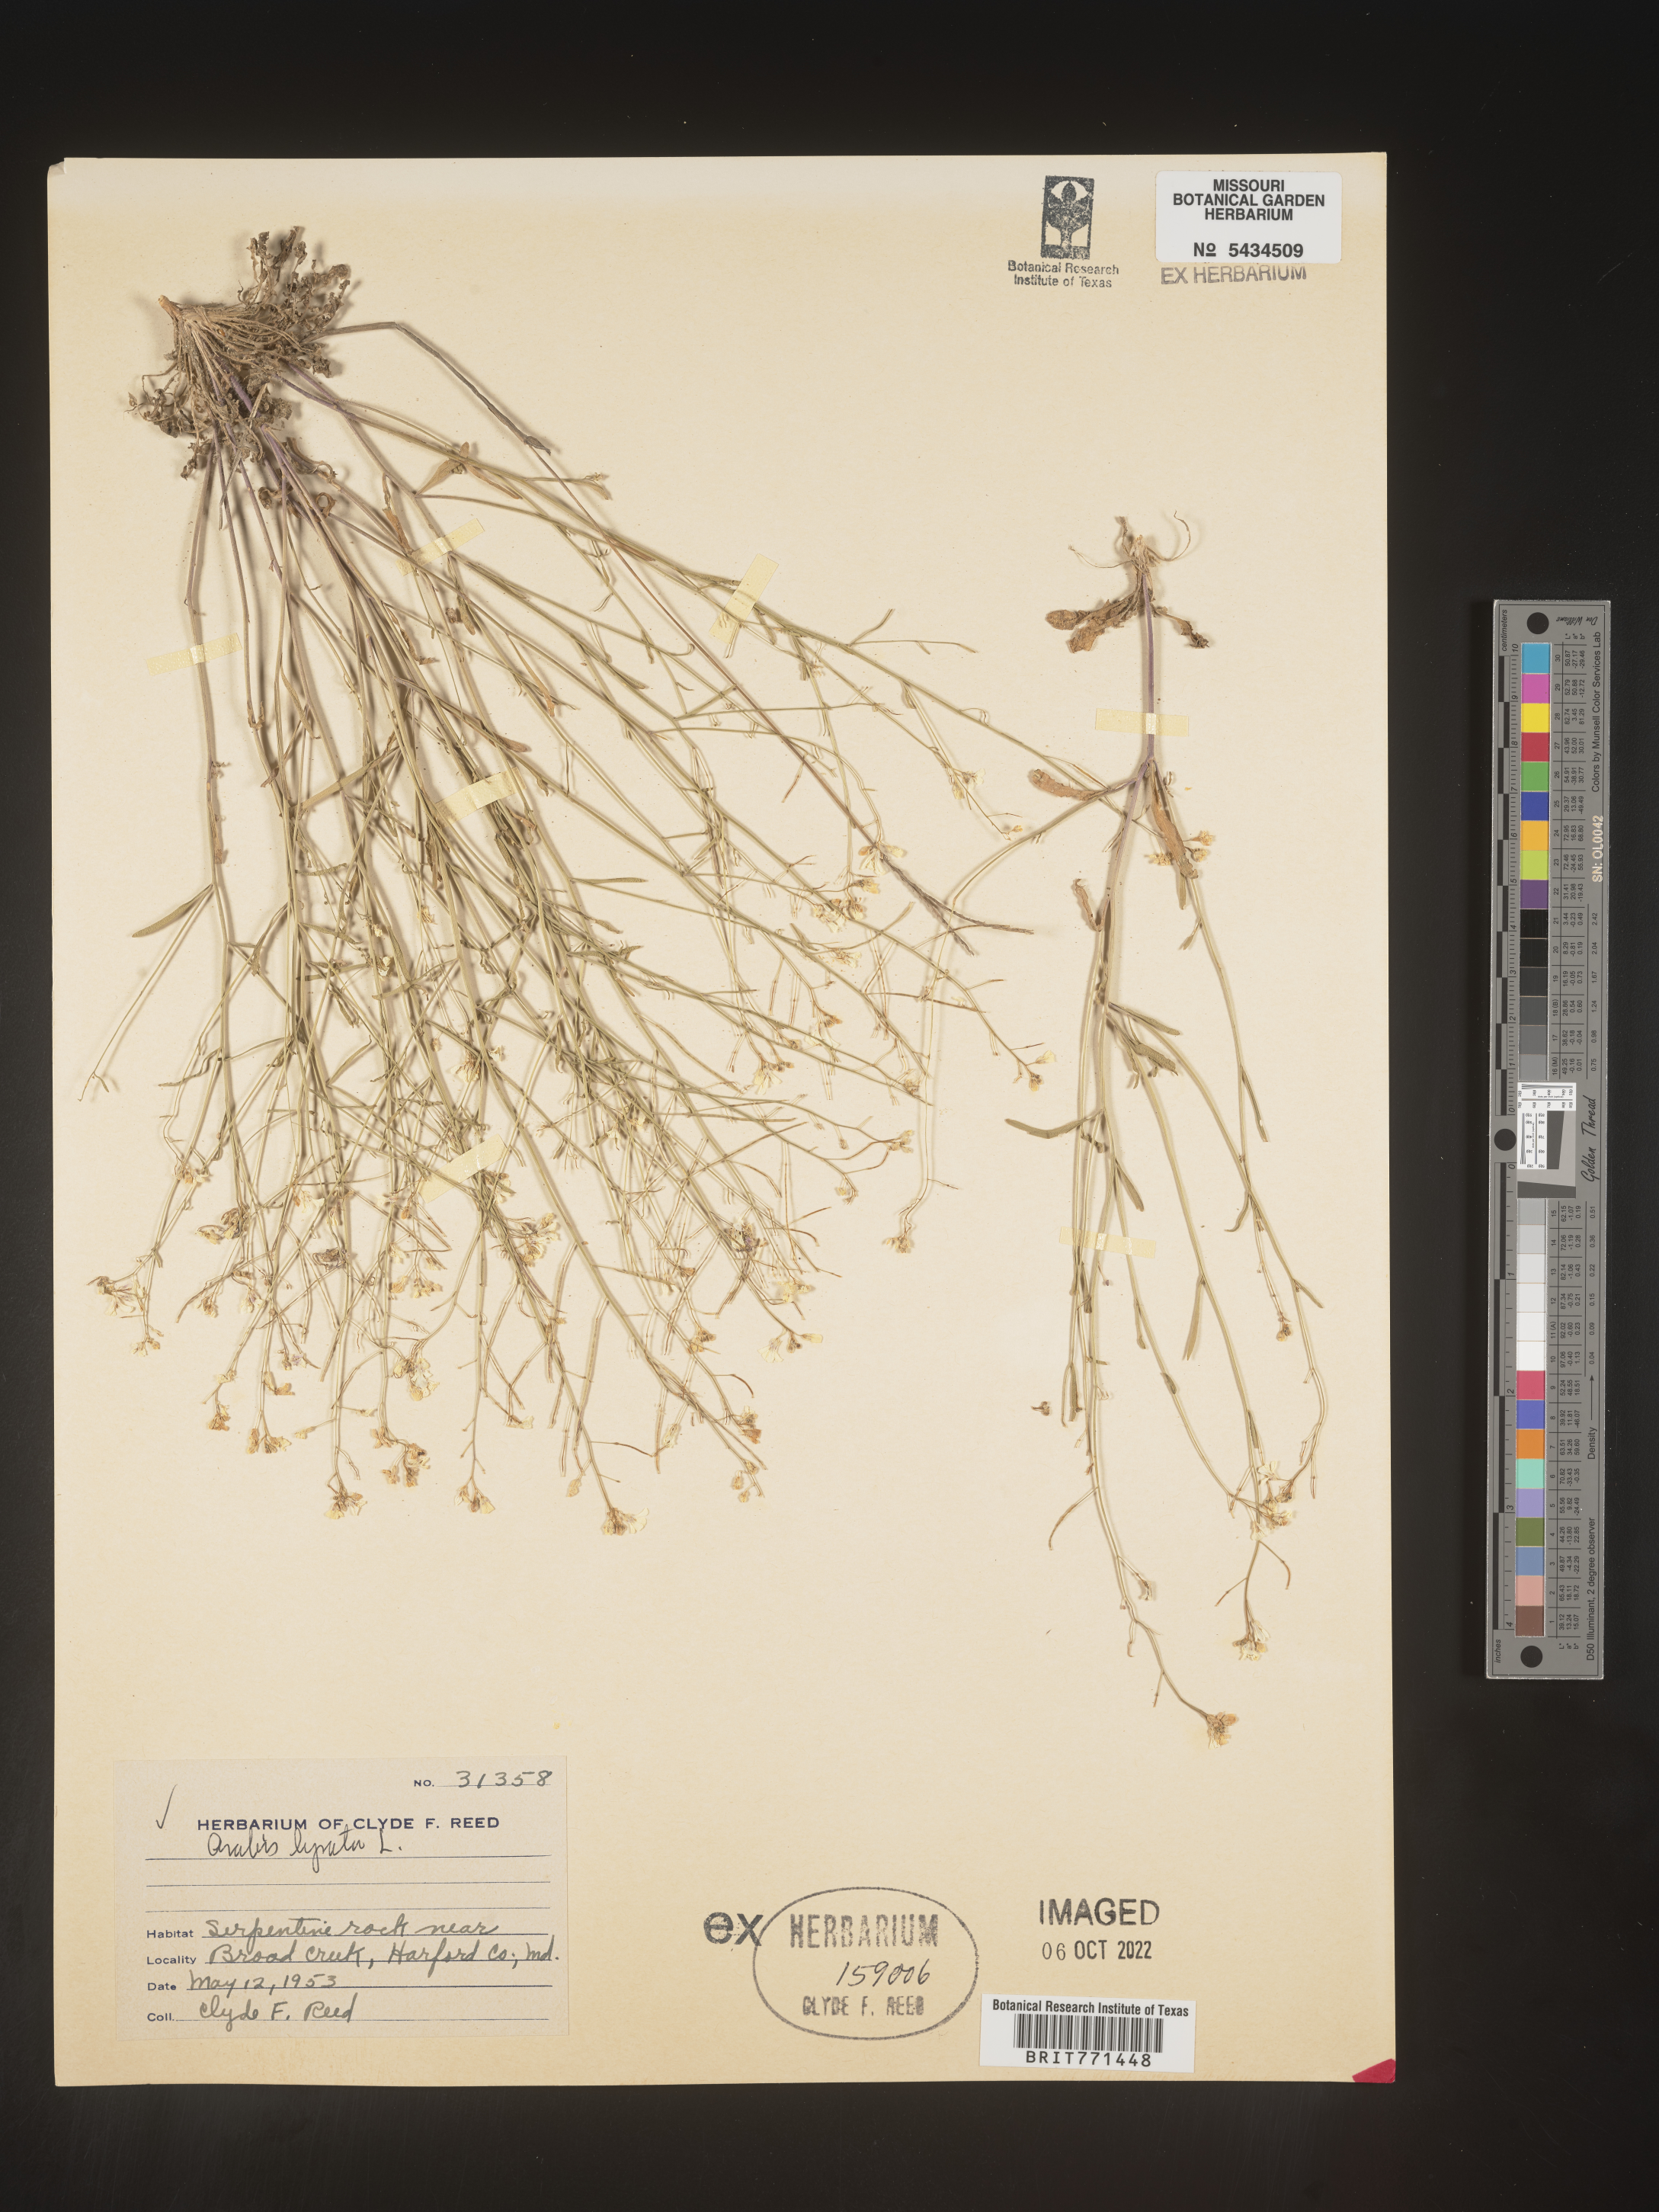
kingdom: Plantae
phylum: Tracheophyta
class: Magnoliopsida
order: Brassicales
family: Brassicaceae
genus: Arabidopsis
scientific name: Arabidopsis lyrata
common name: Lyrate rockcress
